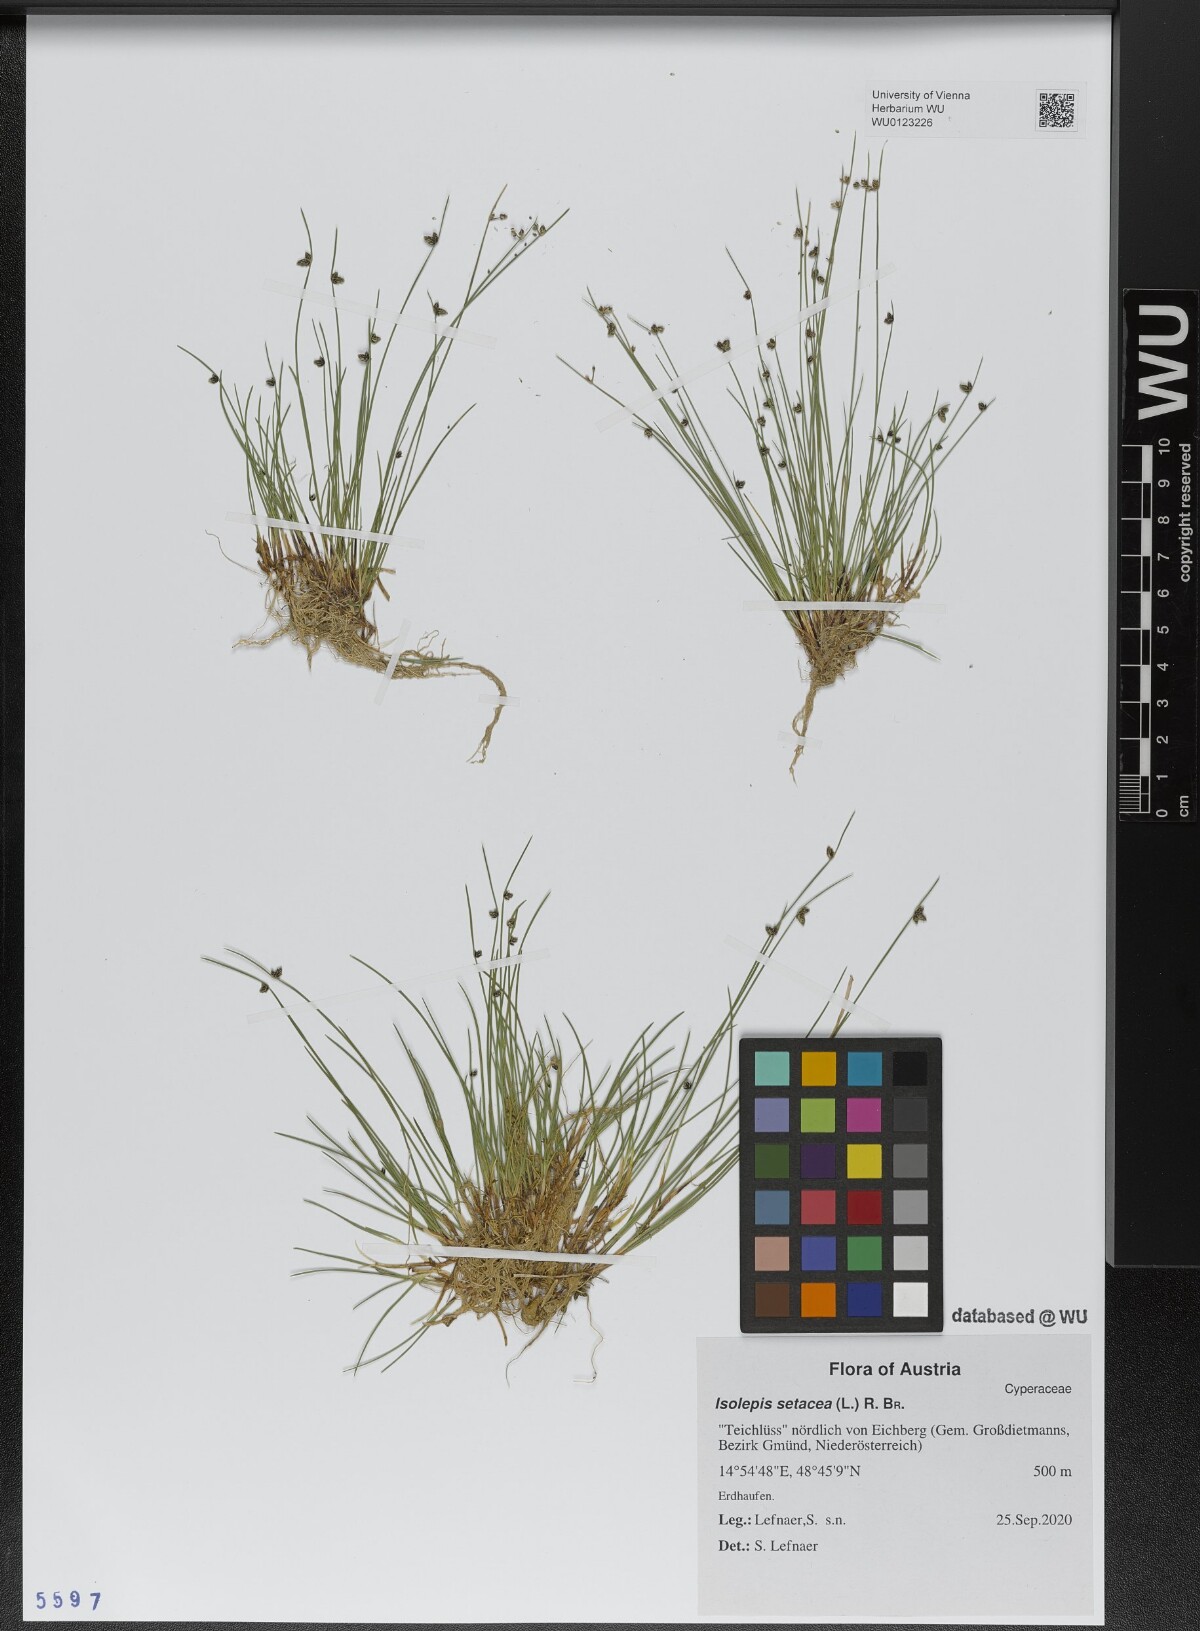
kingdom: Plantae
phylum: Tracheophyta
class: Liliopsida
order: Poales
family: Cyperaceae
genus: Isolepis
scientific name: Isolepis setacea
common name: Bristle club-rush
